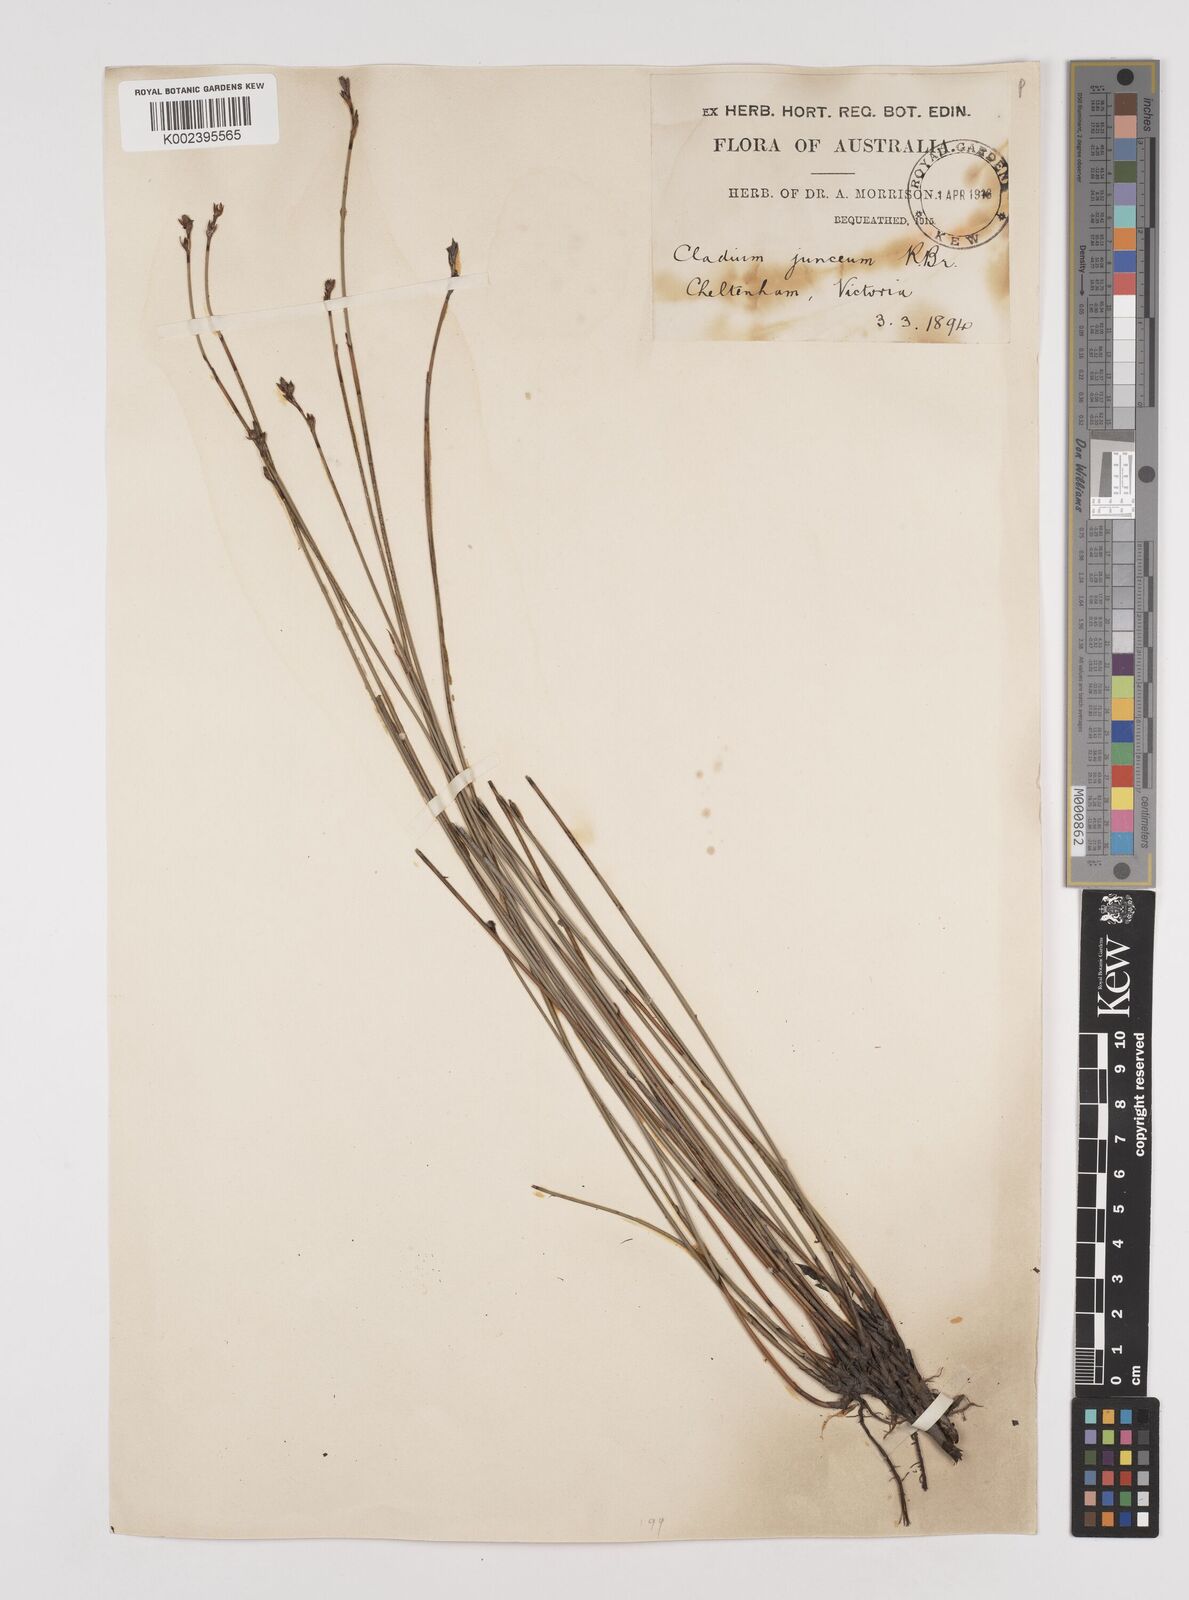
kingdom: Plantae
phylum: Tracheophyta
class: Liliopsida
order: Poales
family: Cyperaceae
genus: Machaerina
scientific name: Machaerina juncea
